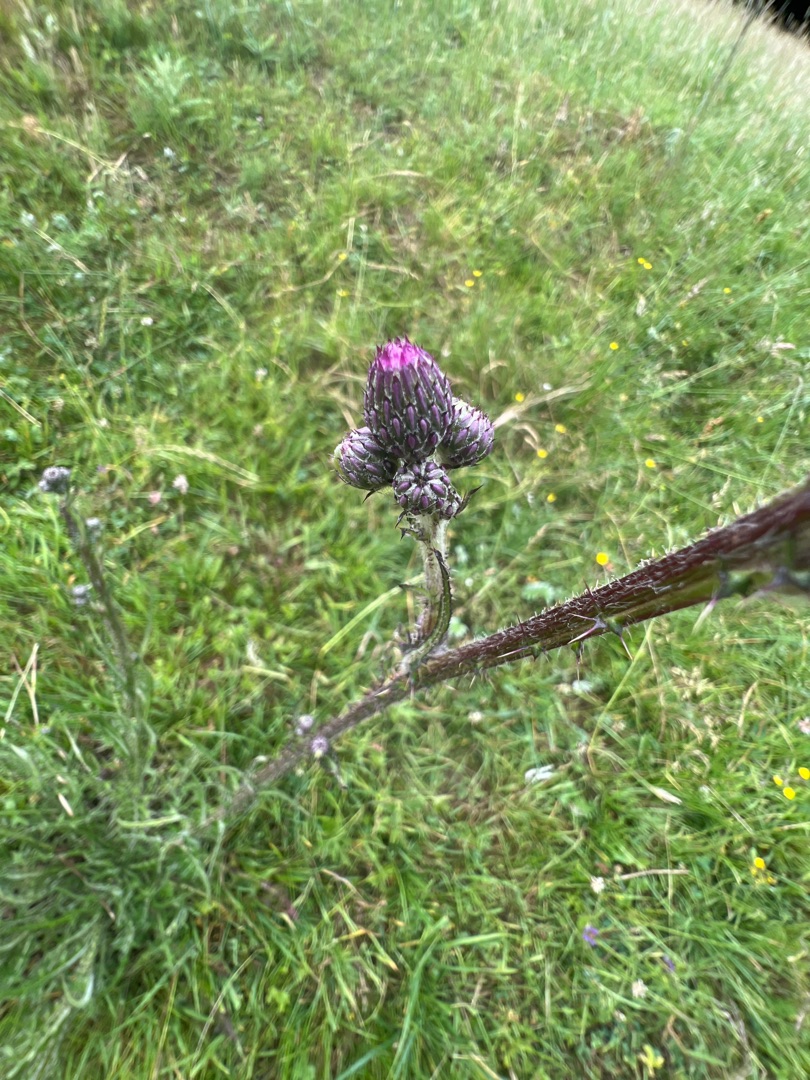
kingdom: Plantae
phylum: Tracheophyta
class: Magnoliopsida
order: Asterales
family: Asteraceae
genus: Cirsium
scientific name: Cirsium palustre
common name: Kær-tidsel
